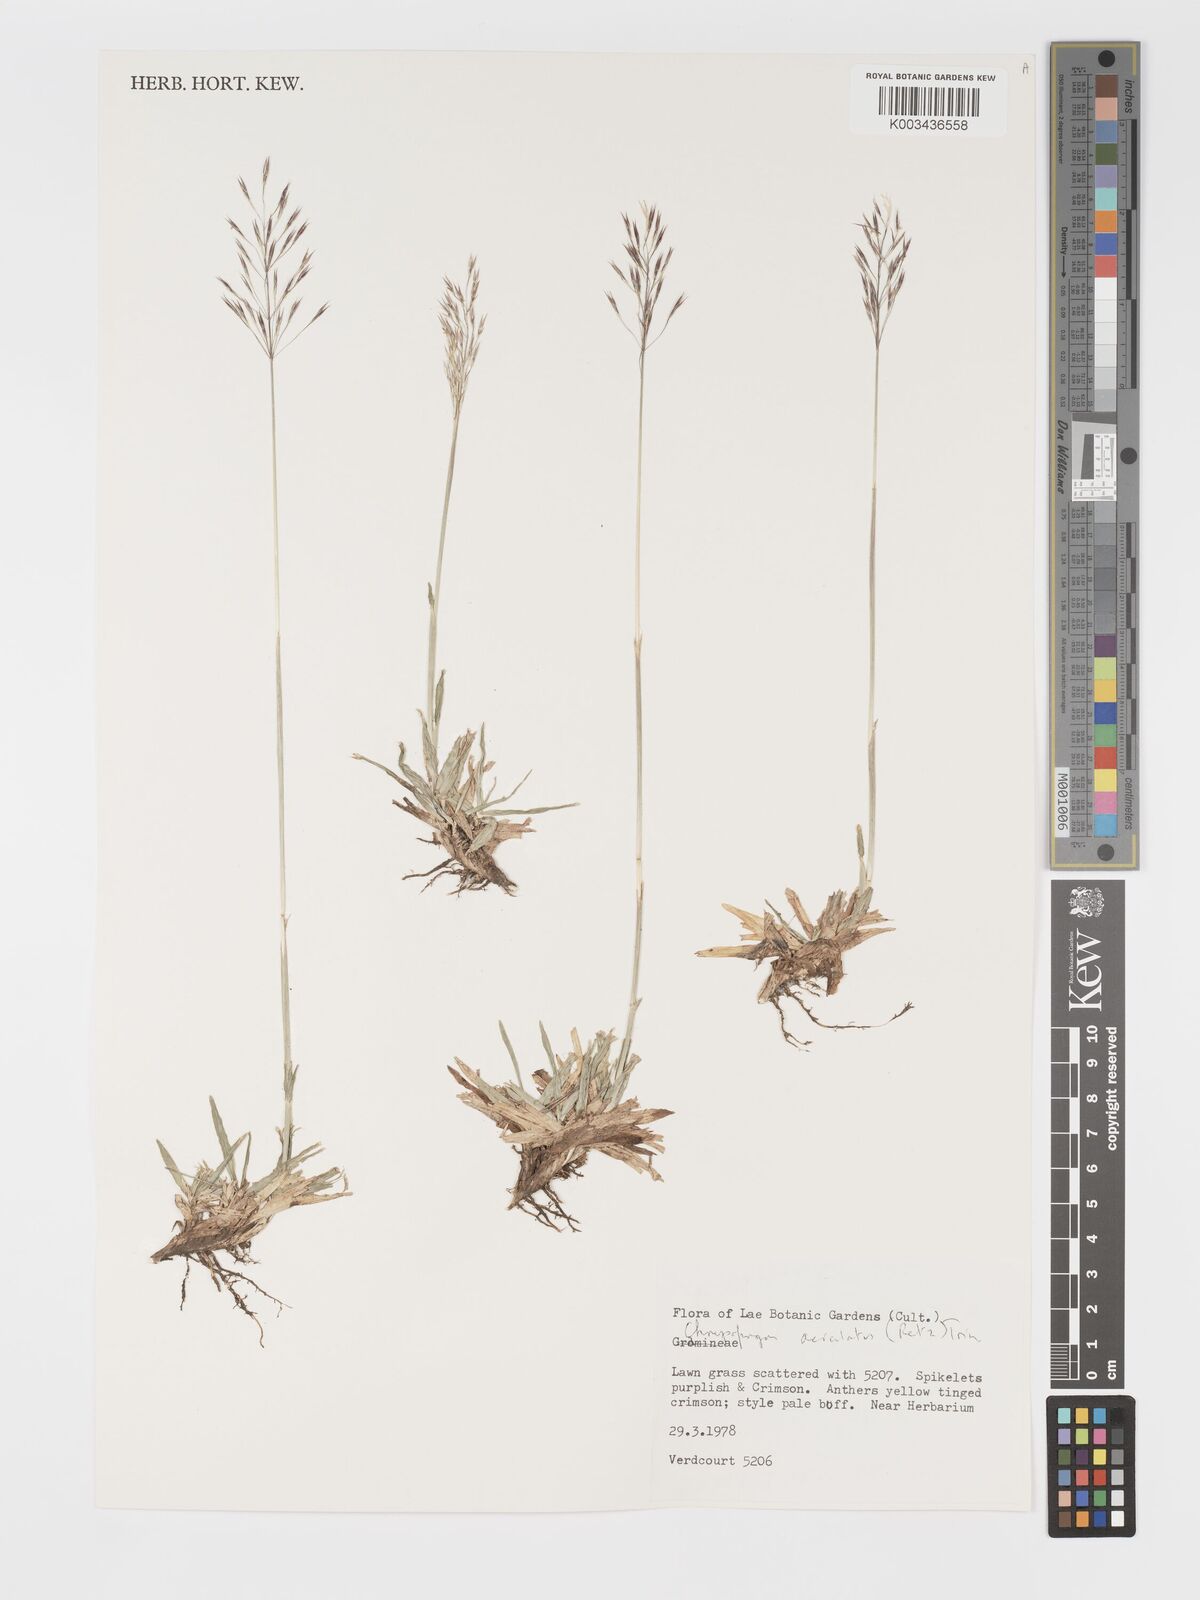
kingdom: Plantae
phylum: Tracheophyta
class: Liliopsida
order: Poales
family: Poaceae
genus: Chrysopogon
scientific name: Chrysopogon aciculatus
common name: Pilipiliula
